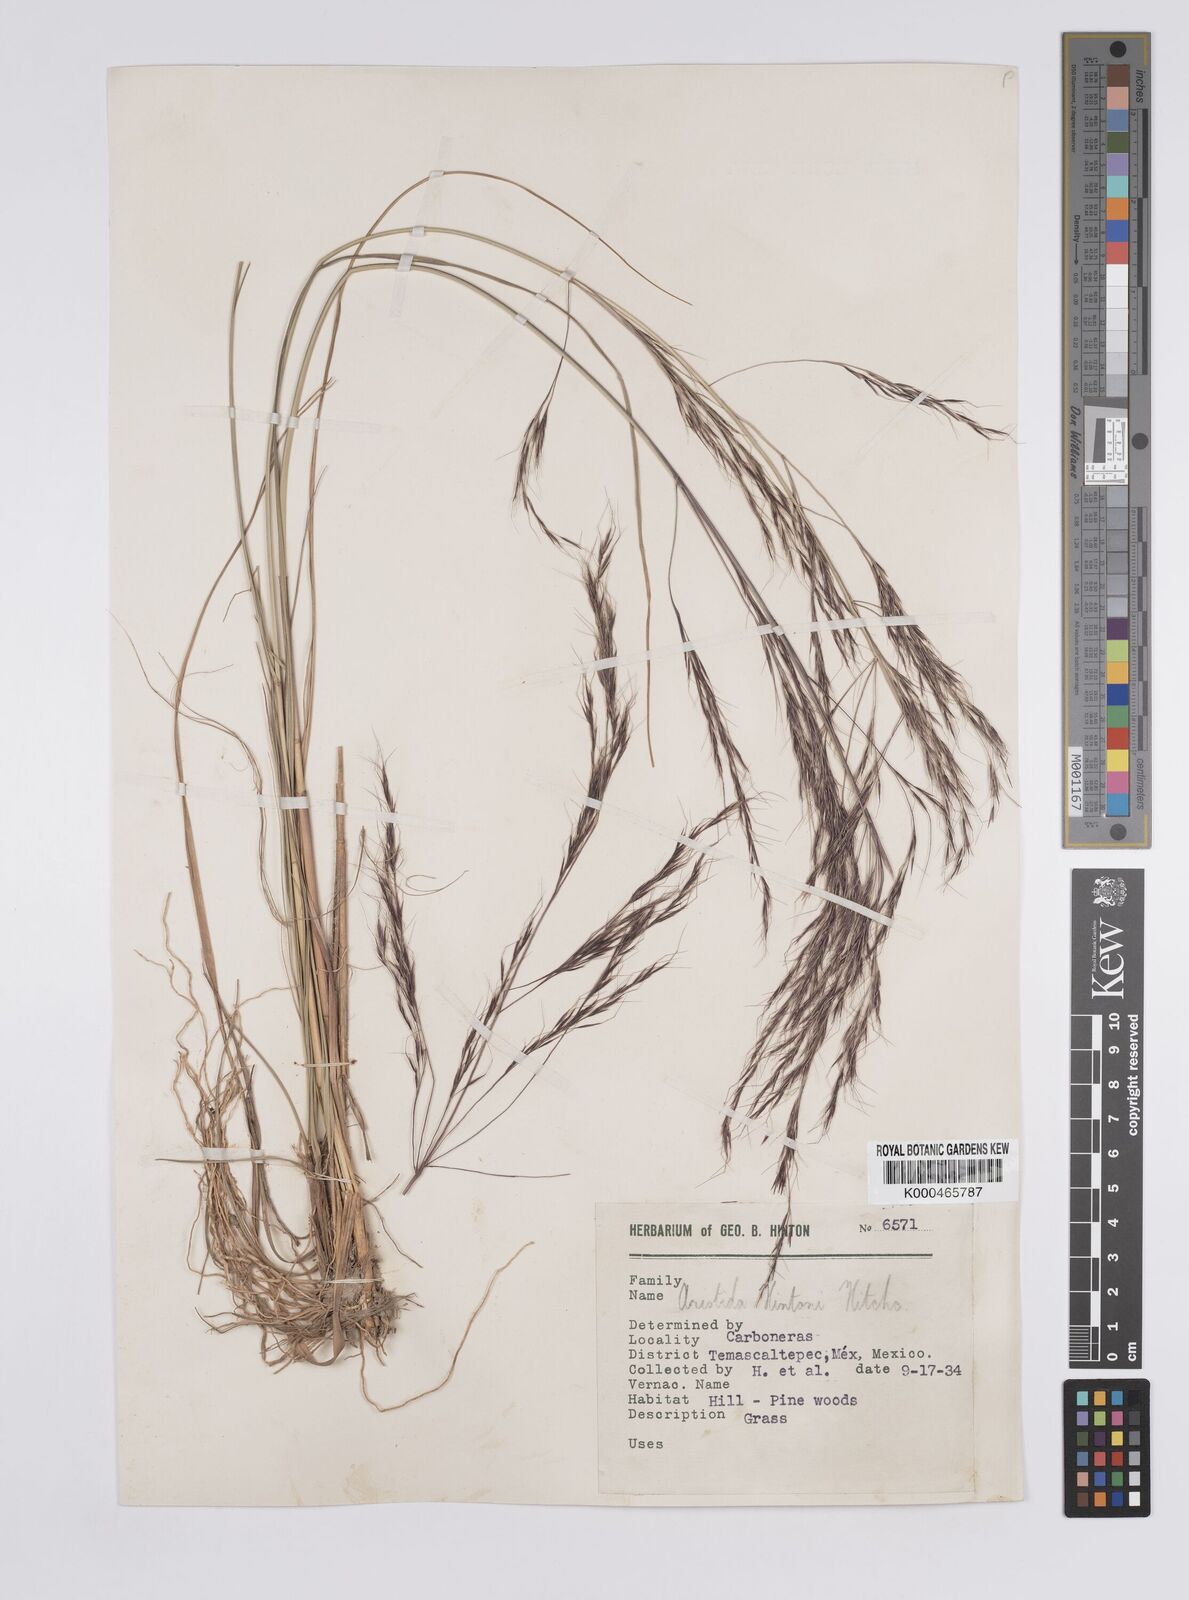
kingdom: Plantae
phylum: Tracheophyta
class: Liliopsida
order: Poales
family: Poaceae
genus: Aristida
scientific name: Aristida hintonii
